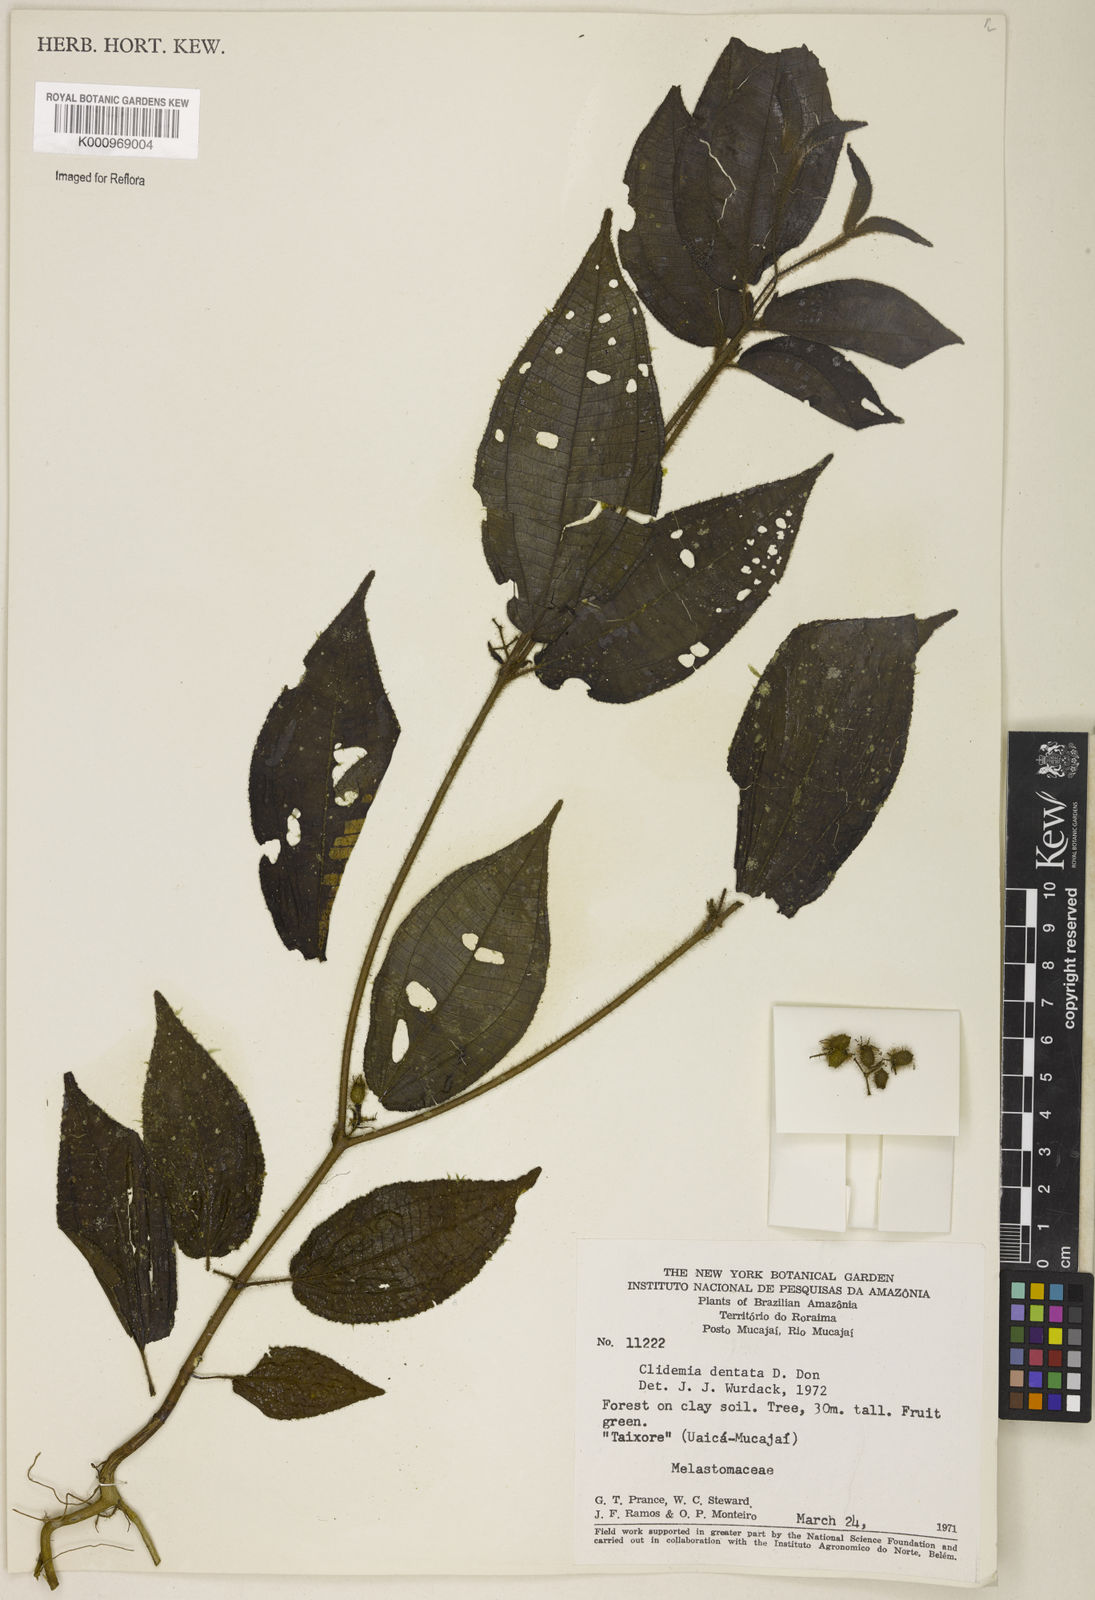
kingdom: Plantae
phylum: Tracheophyta
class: Magnoliopsida
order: Myrtales
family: Melastomataceae
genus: Miconia
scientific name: Miconia dentata
